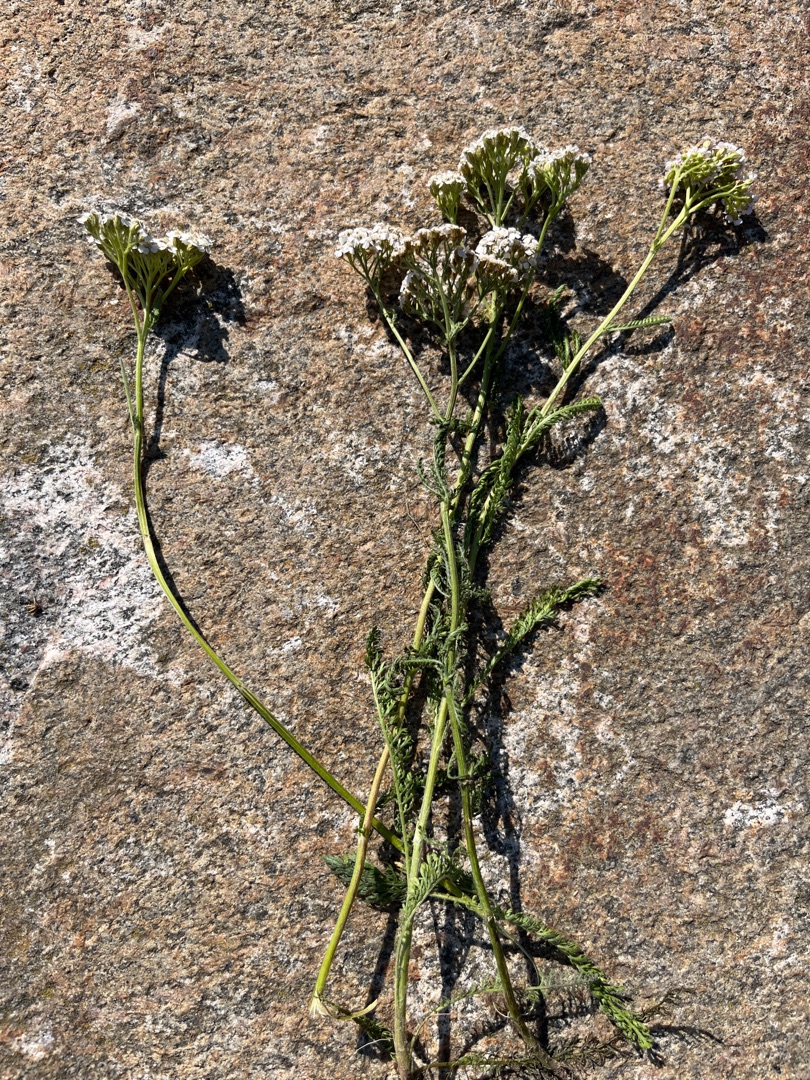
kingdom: Plantae
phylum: Tracheophyta
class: Magnoliopsida
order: Asterales
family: Asteraceae
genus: Achillea
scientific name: Achillea millefolium
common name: Almindelig røllike
